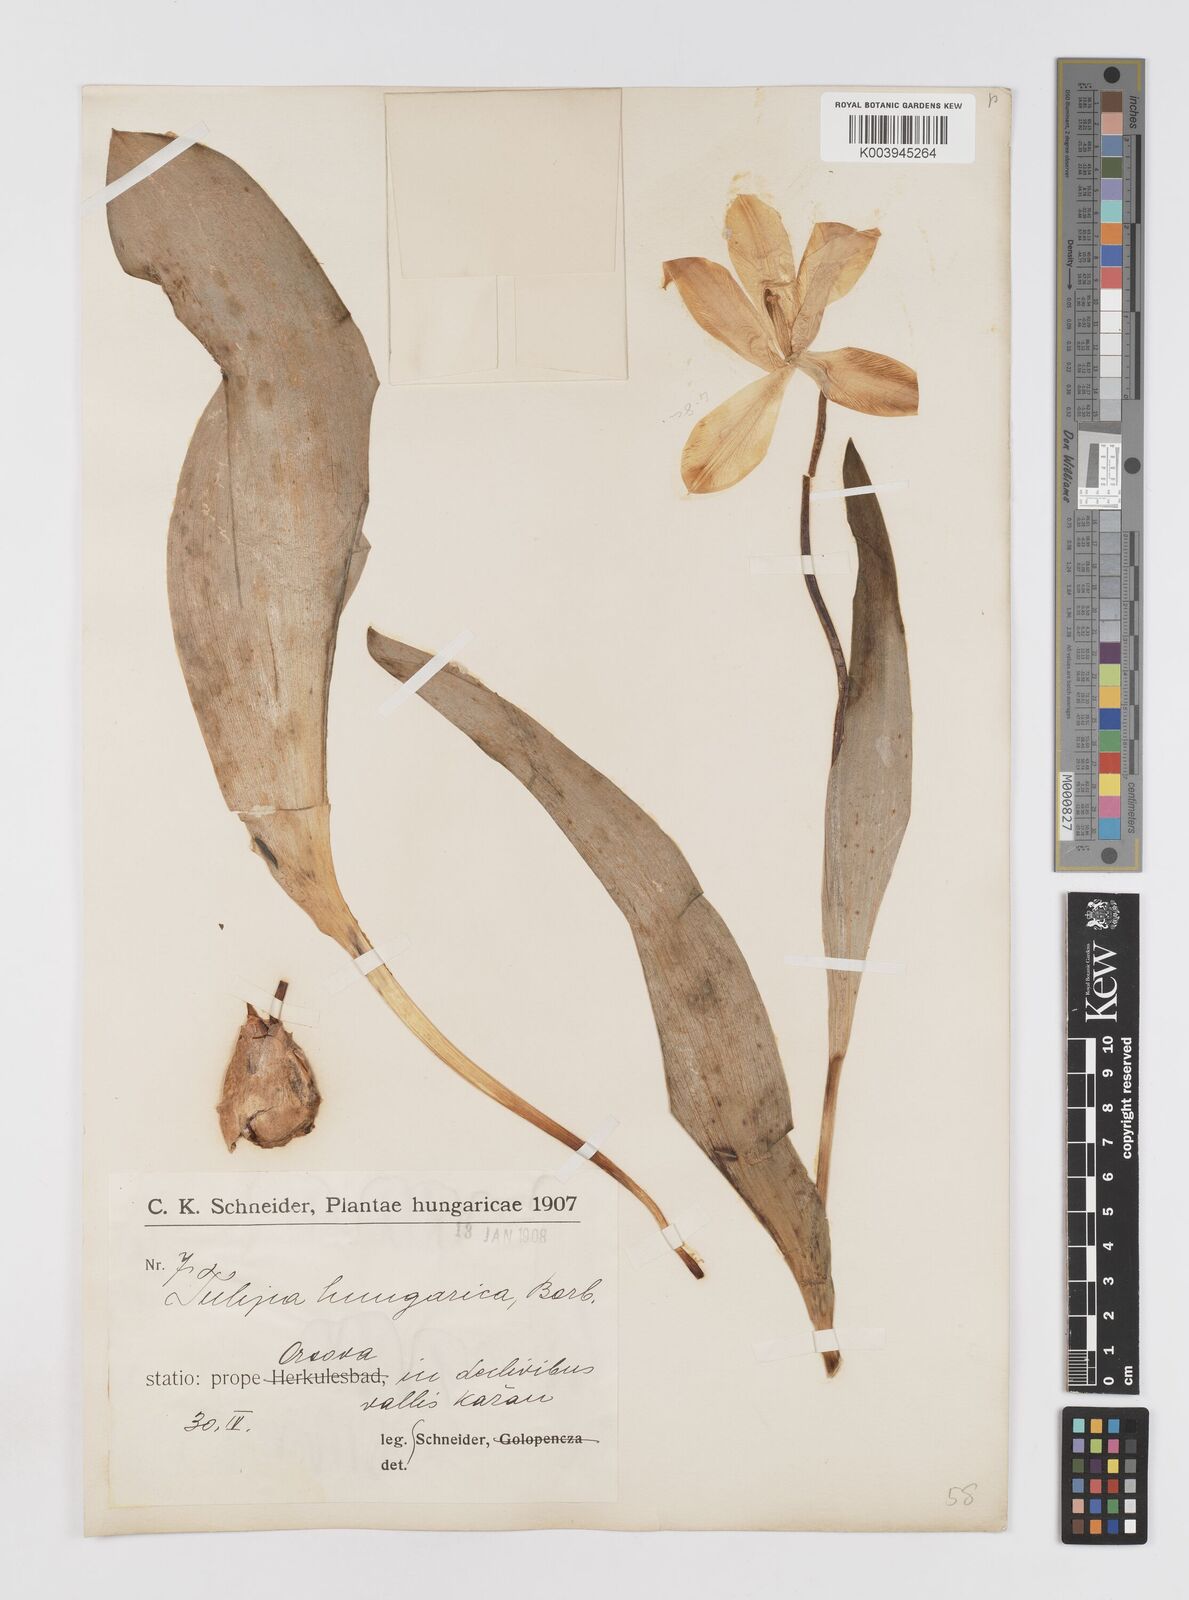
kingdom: Plantae
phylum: Tracheophyta
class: Liliopsida
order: Liliales
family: Liliaceae
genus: Tulipa
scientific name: Tulipa hungarica
